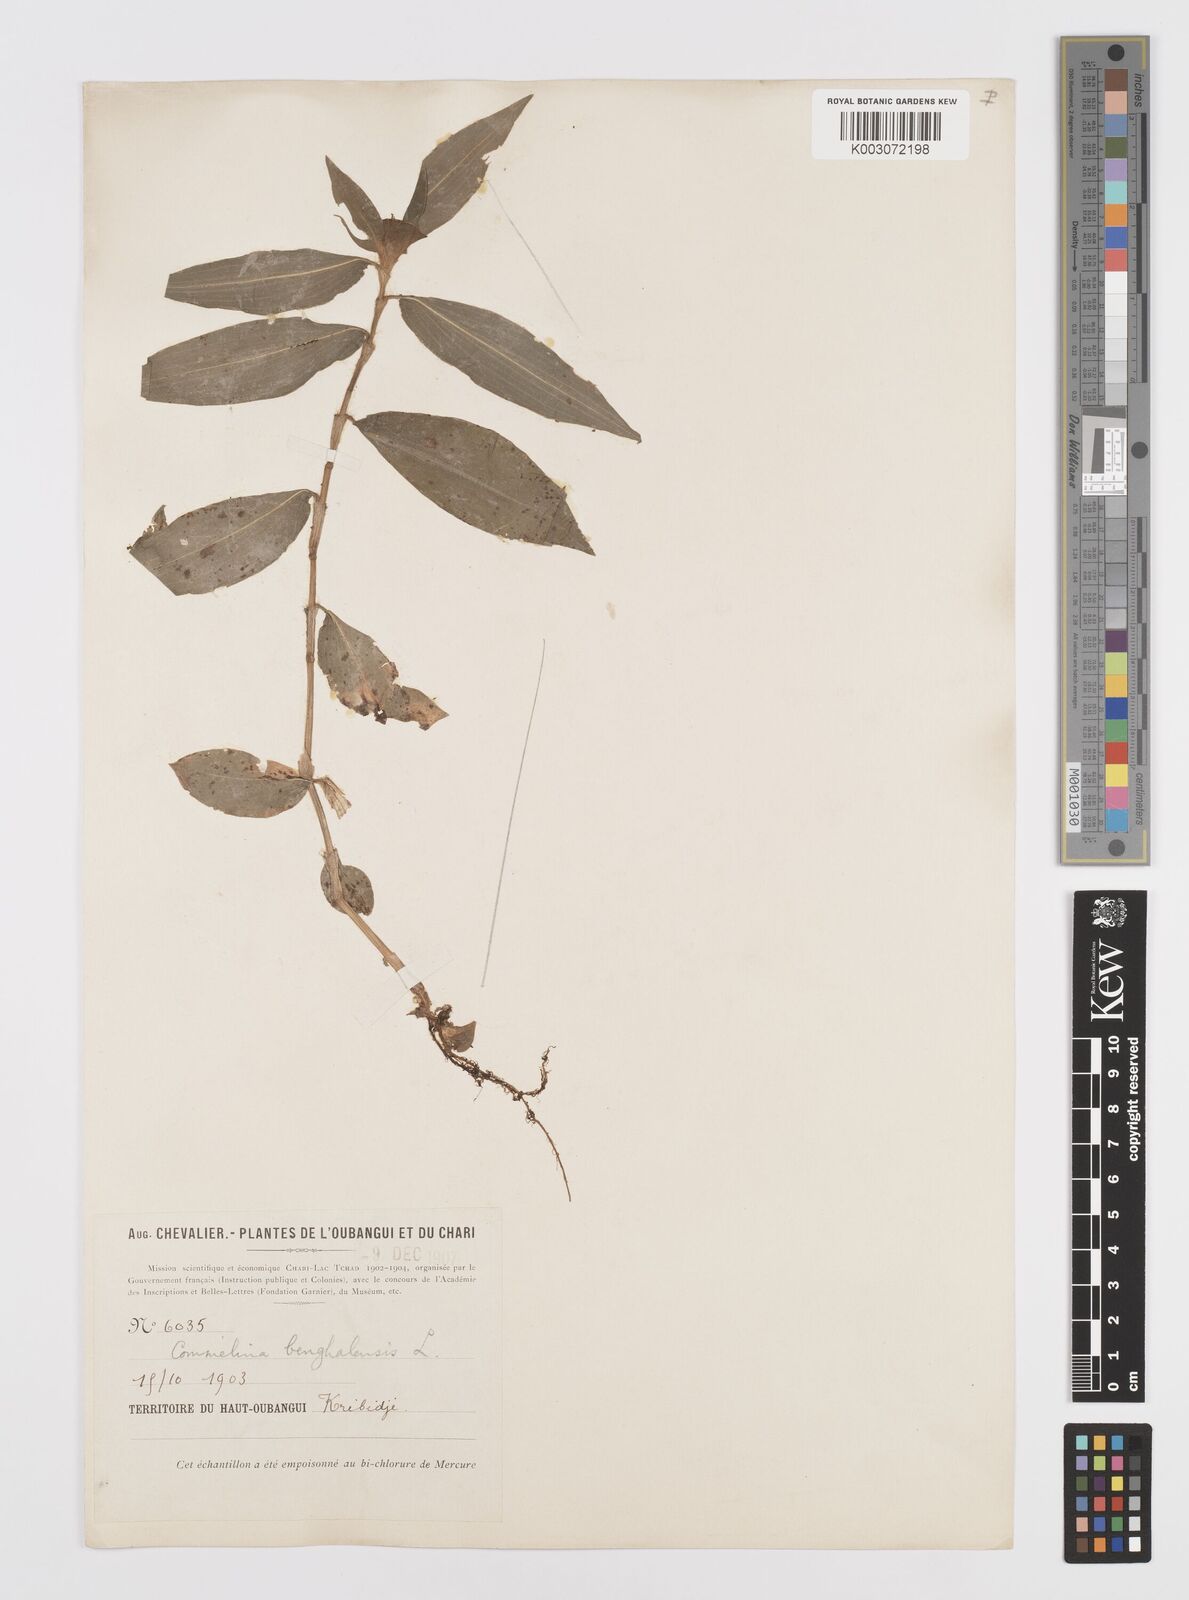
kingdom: Plantae
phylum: Tracheophyta
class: Liliopsida
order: Commelinales
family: Commelinaceae
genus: Commelina
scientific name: Commelina congesta
